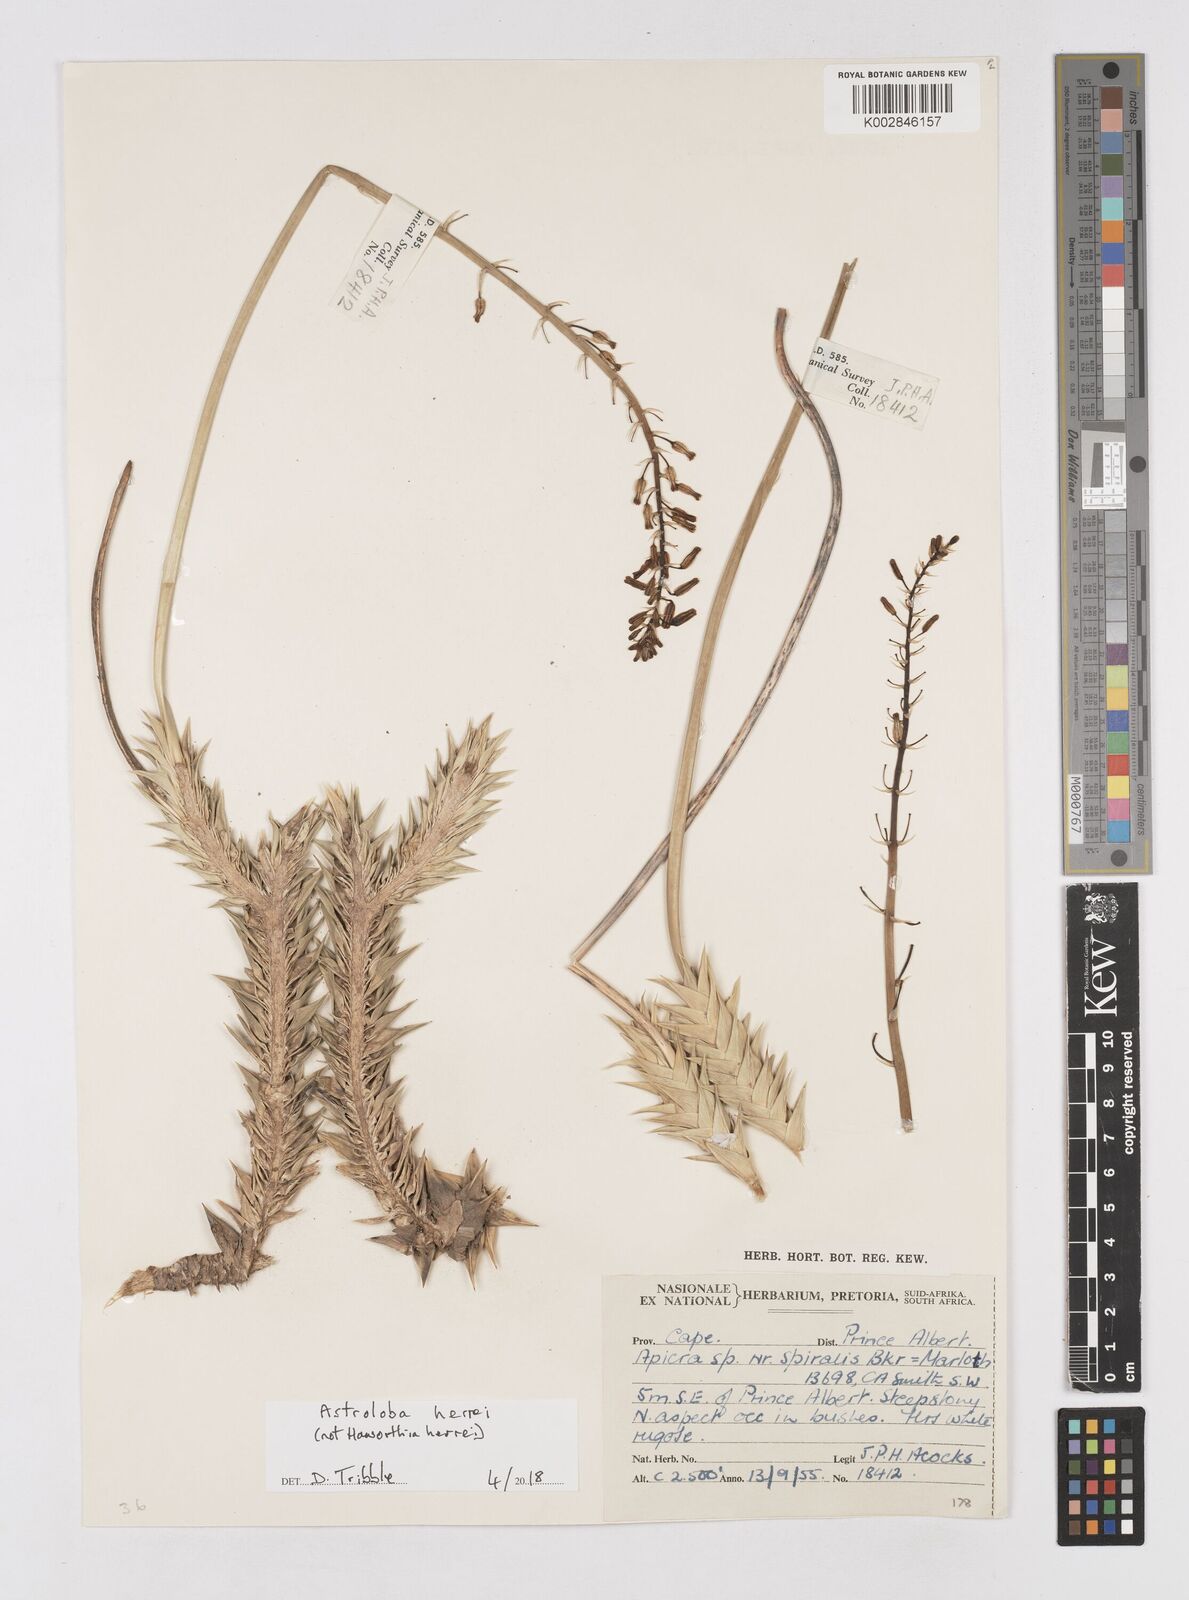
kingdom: Plantae
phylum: Tracheophyta
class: Liliopsida
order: Asparagales
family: Asphodelaceae
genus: Astroloba
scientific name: Astroloba herrei
